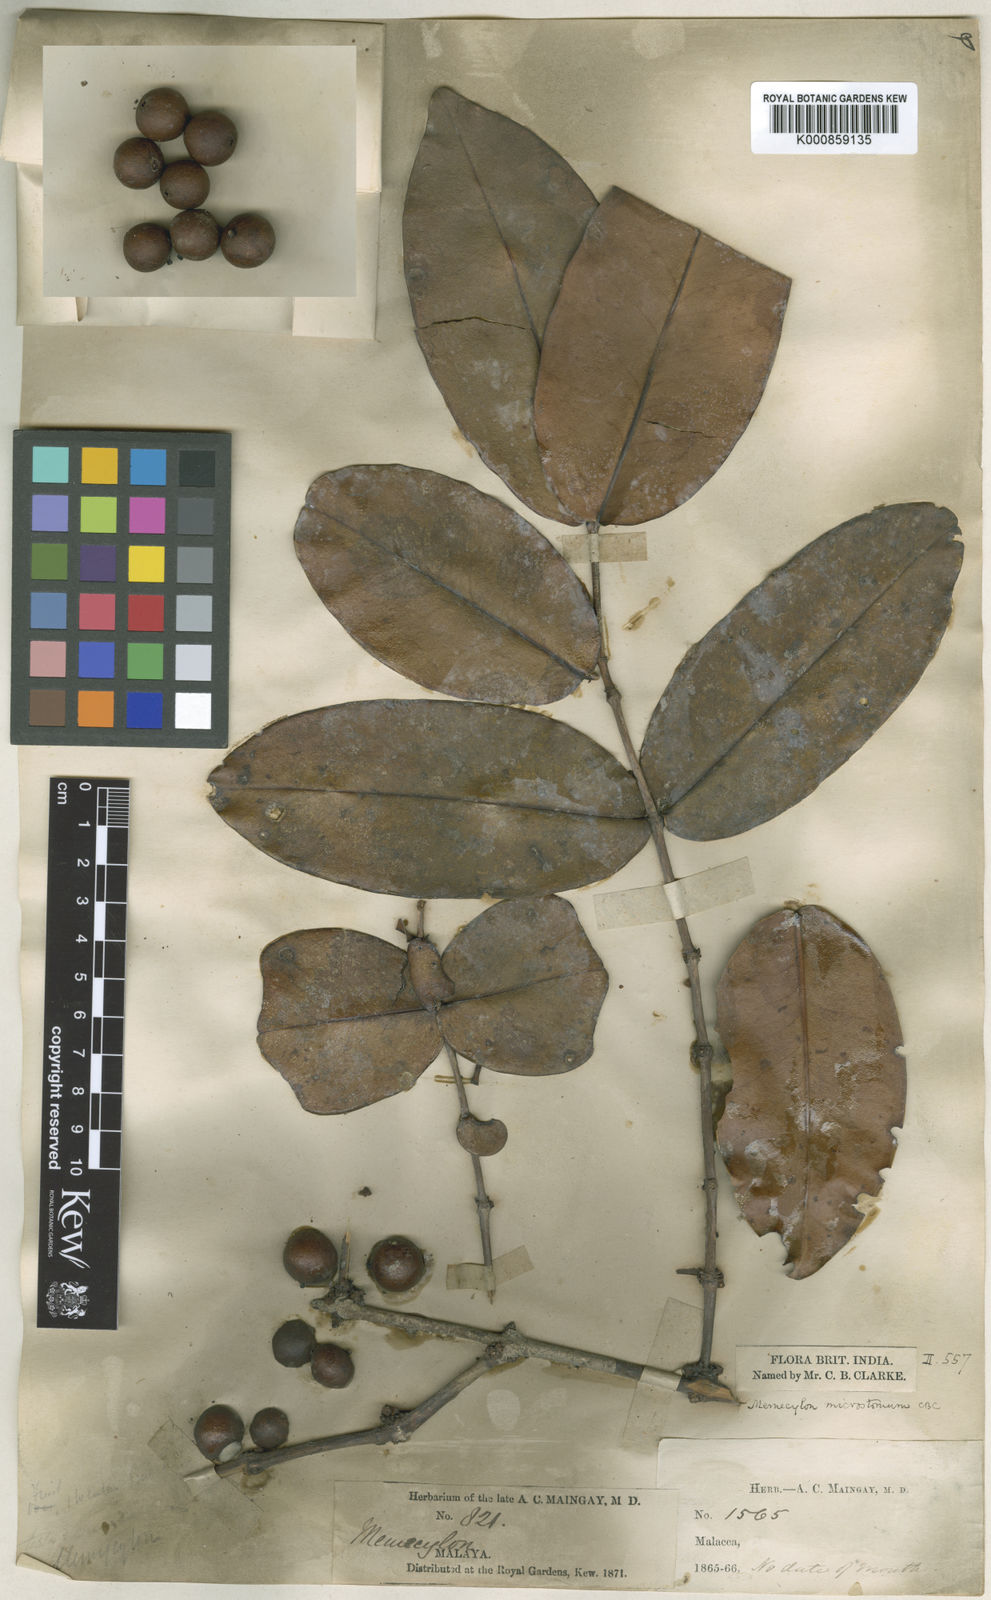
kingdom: Plantae
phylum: Tracheophyta
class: Magnoliopsida
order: Myrtales
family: Melastomataceae
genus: Memecylon
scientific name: Memecylon amplexicaule
